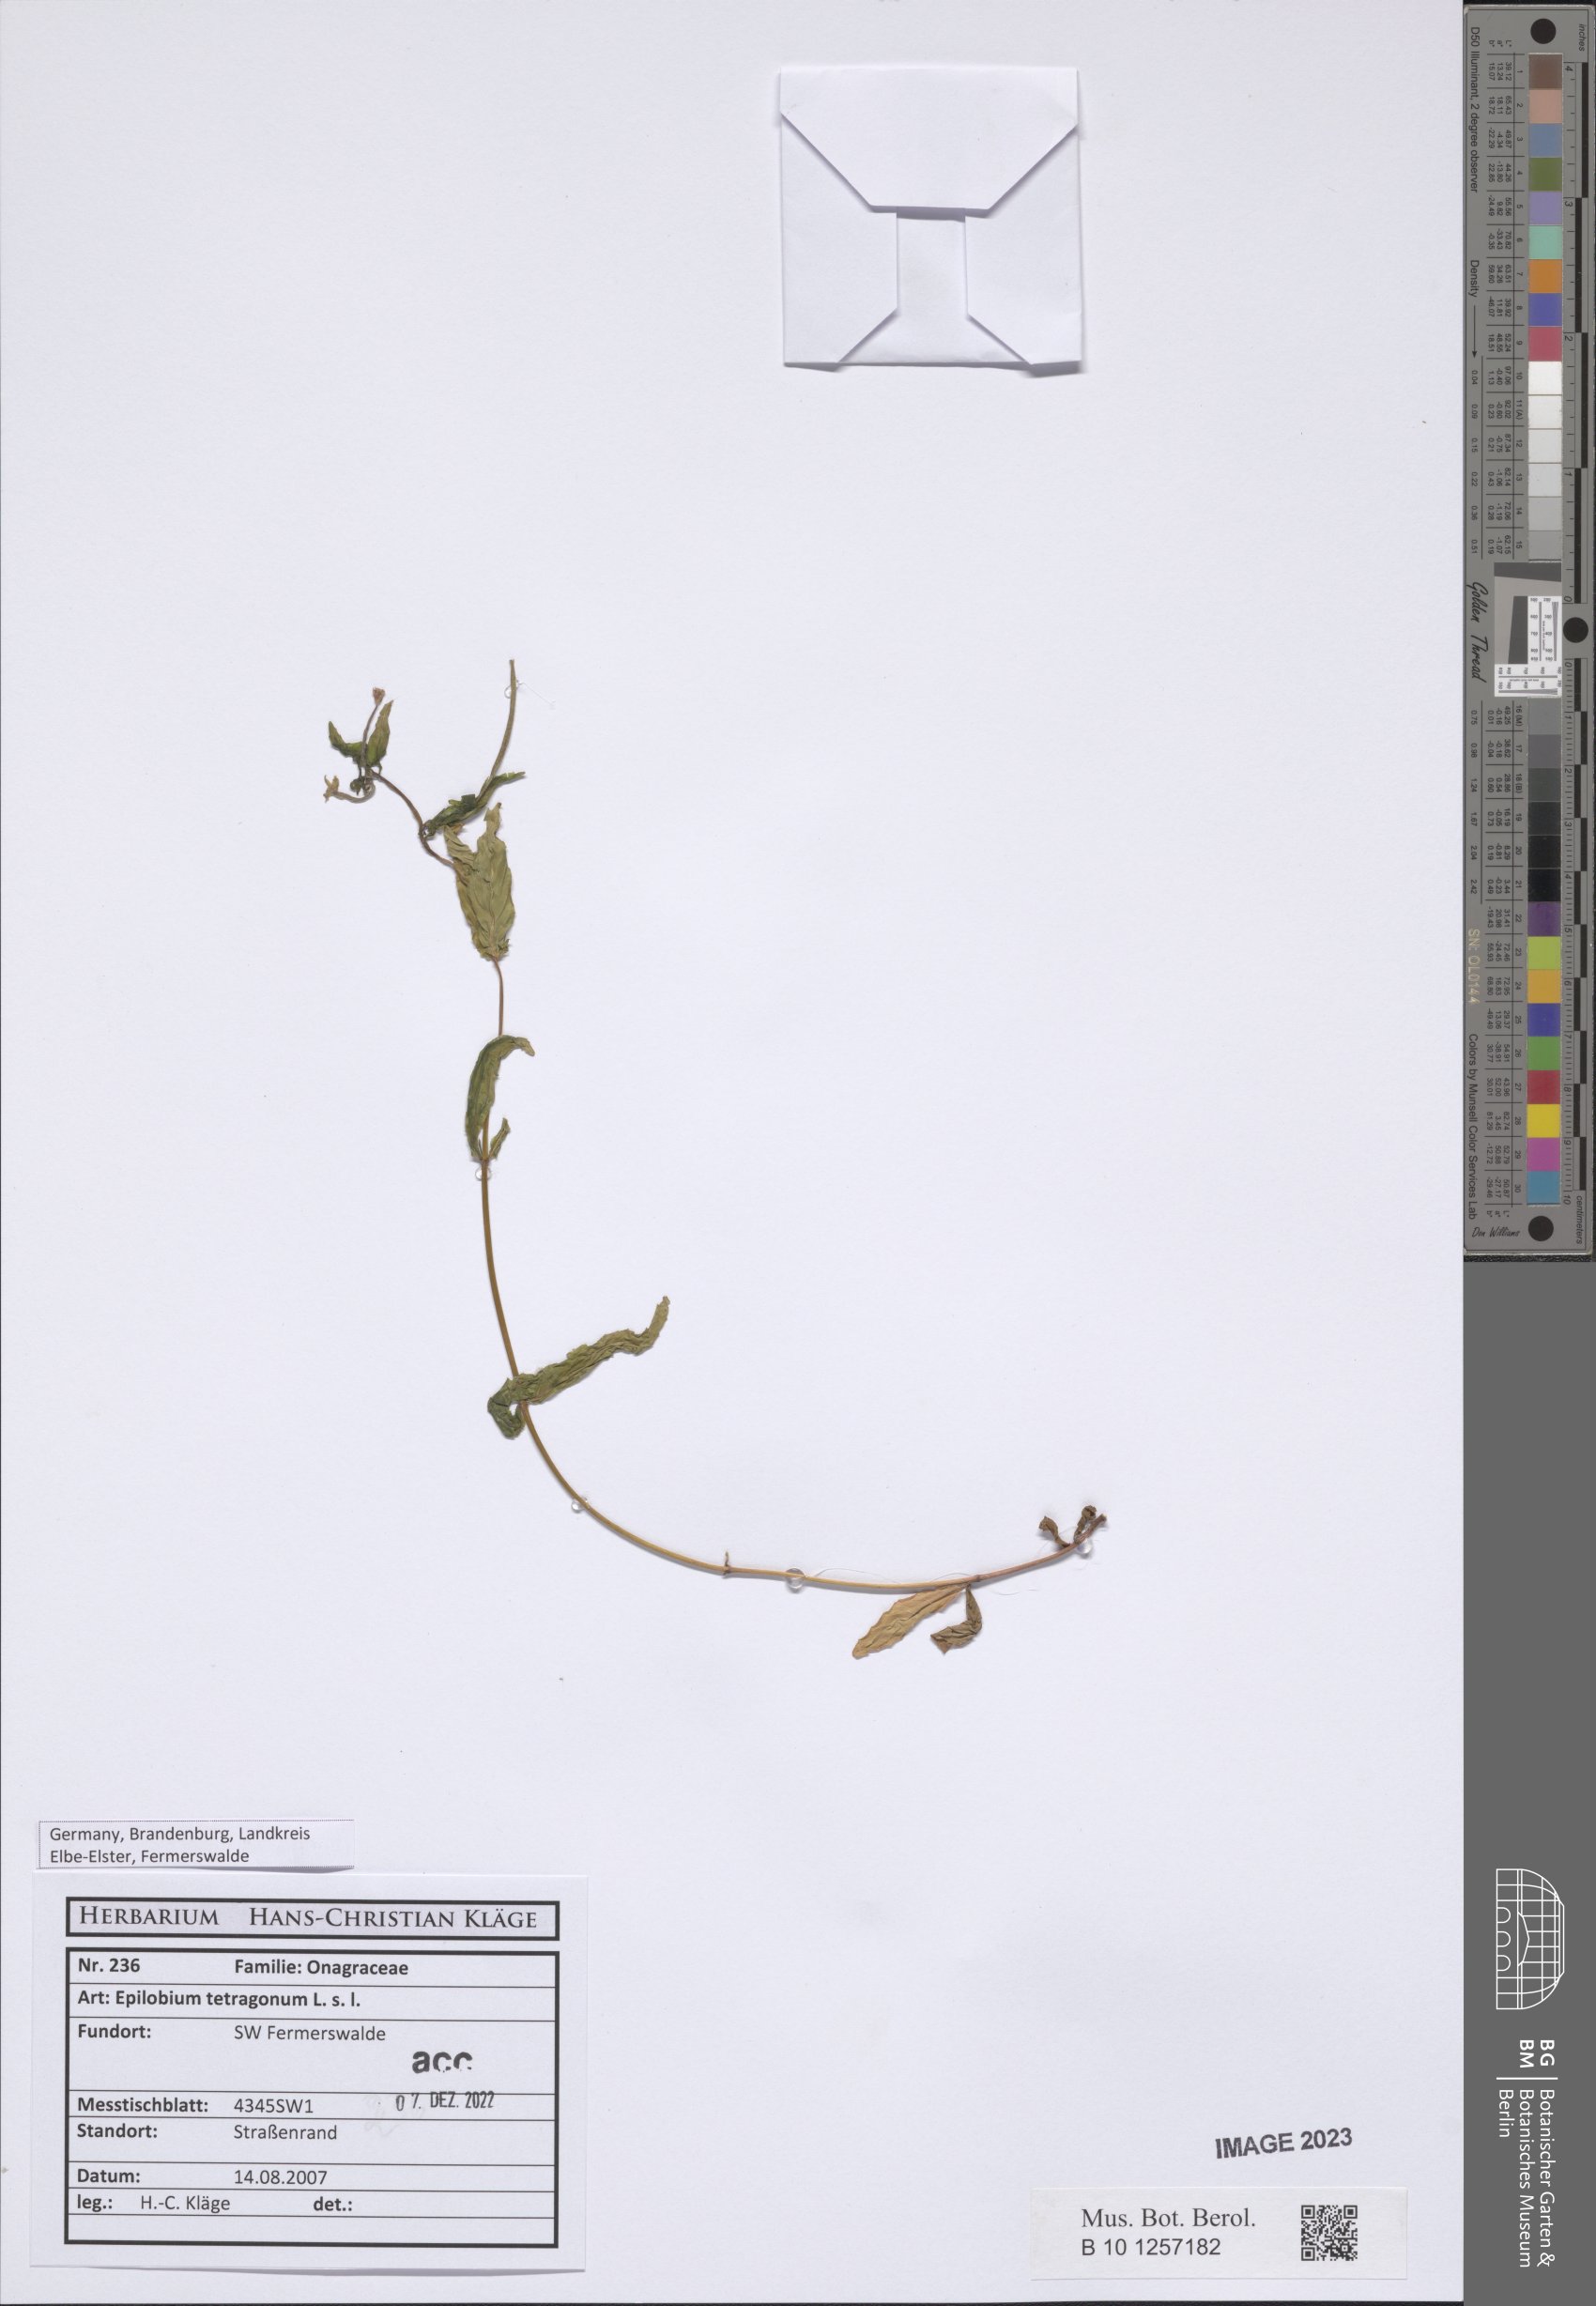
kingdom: Plantae
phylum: Tracheophyta
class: Magnoliopsida
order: Myrtales
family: Onagraceae
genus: Epilobium
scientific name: Epilobium tetragonum
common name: Square-stemmed willowherb
